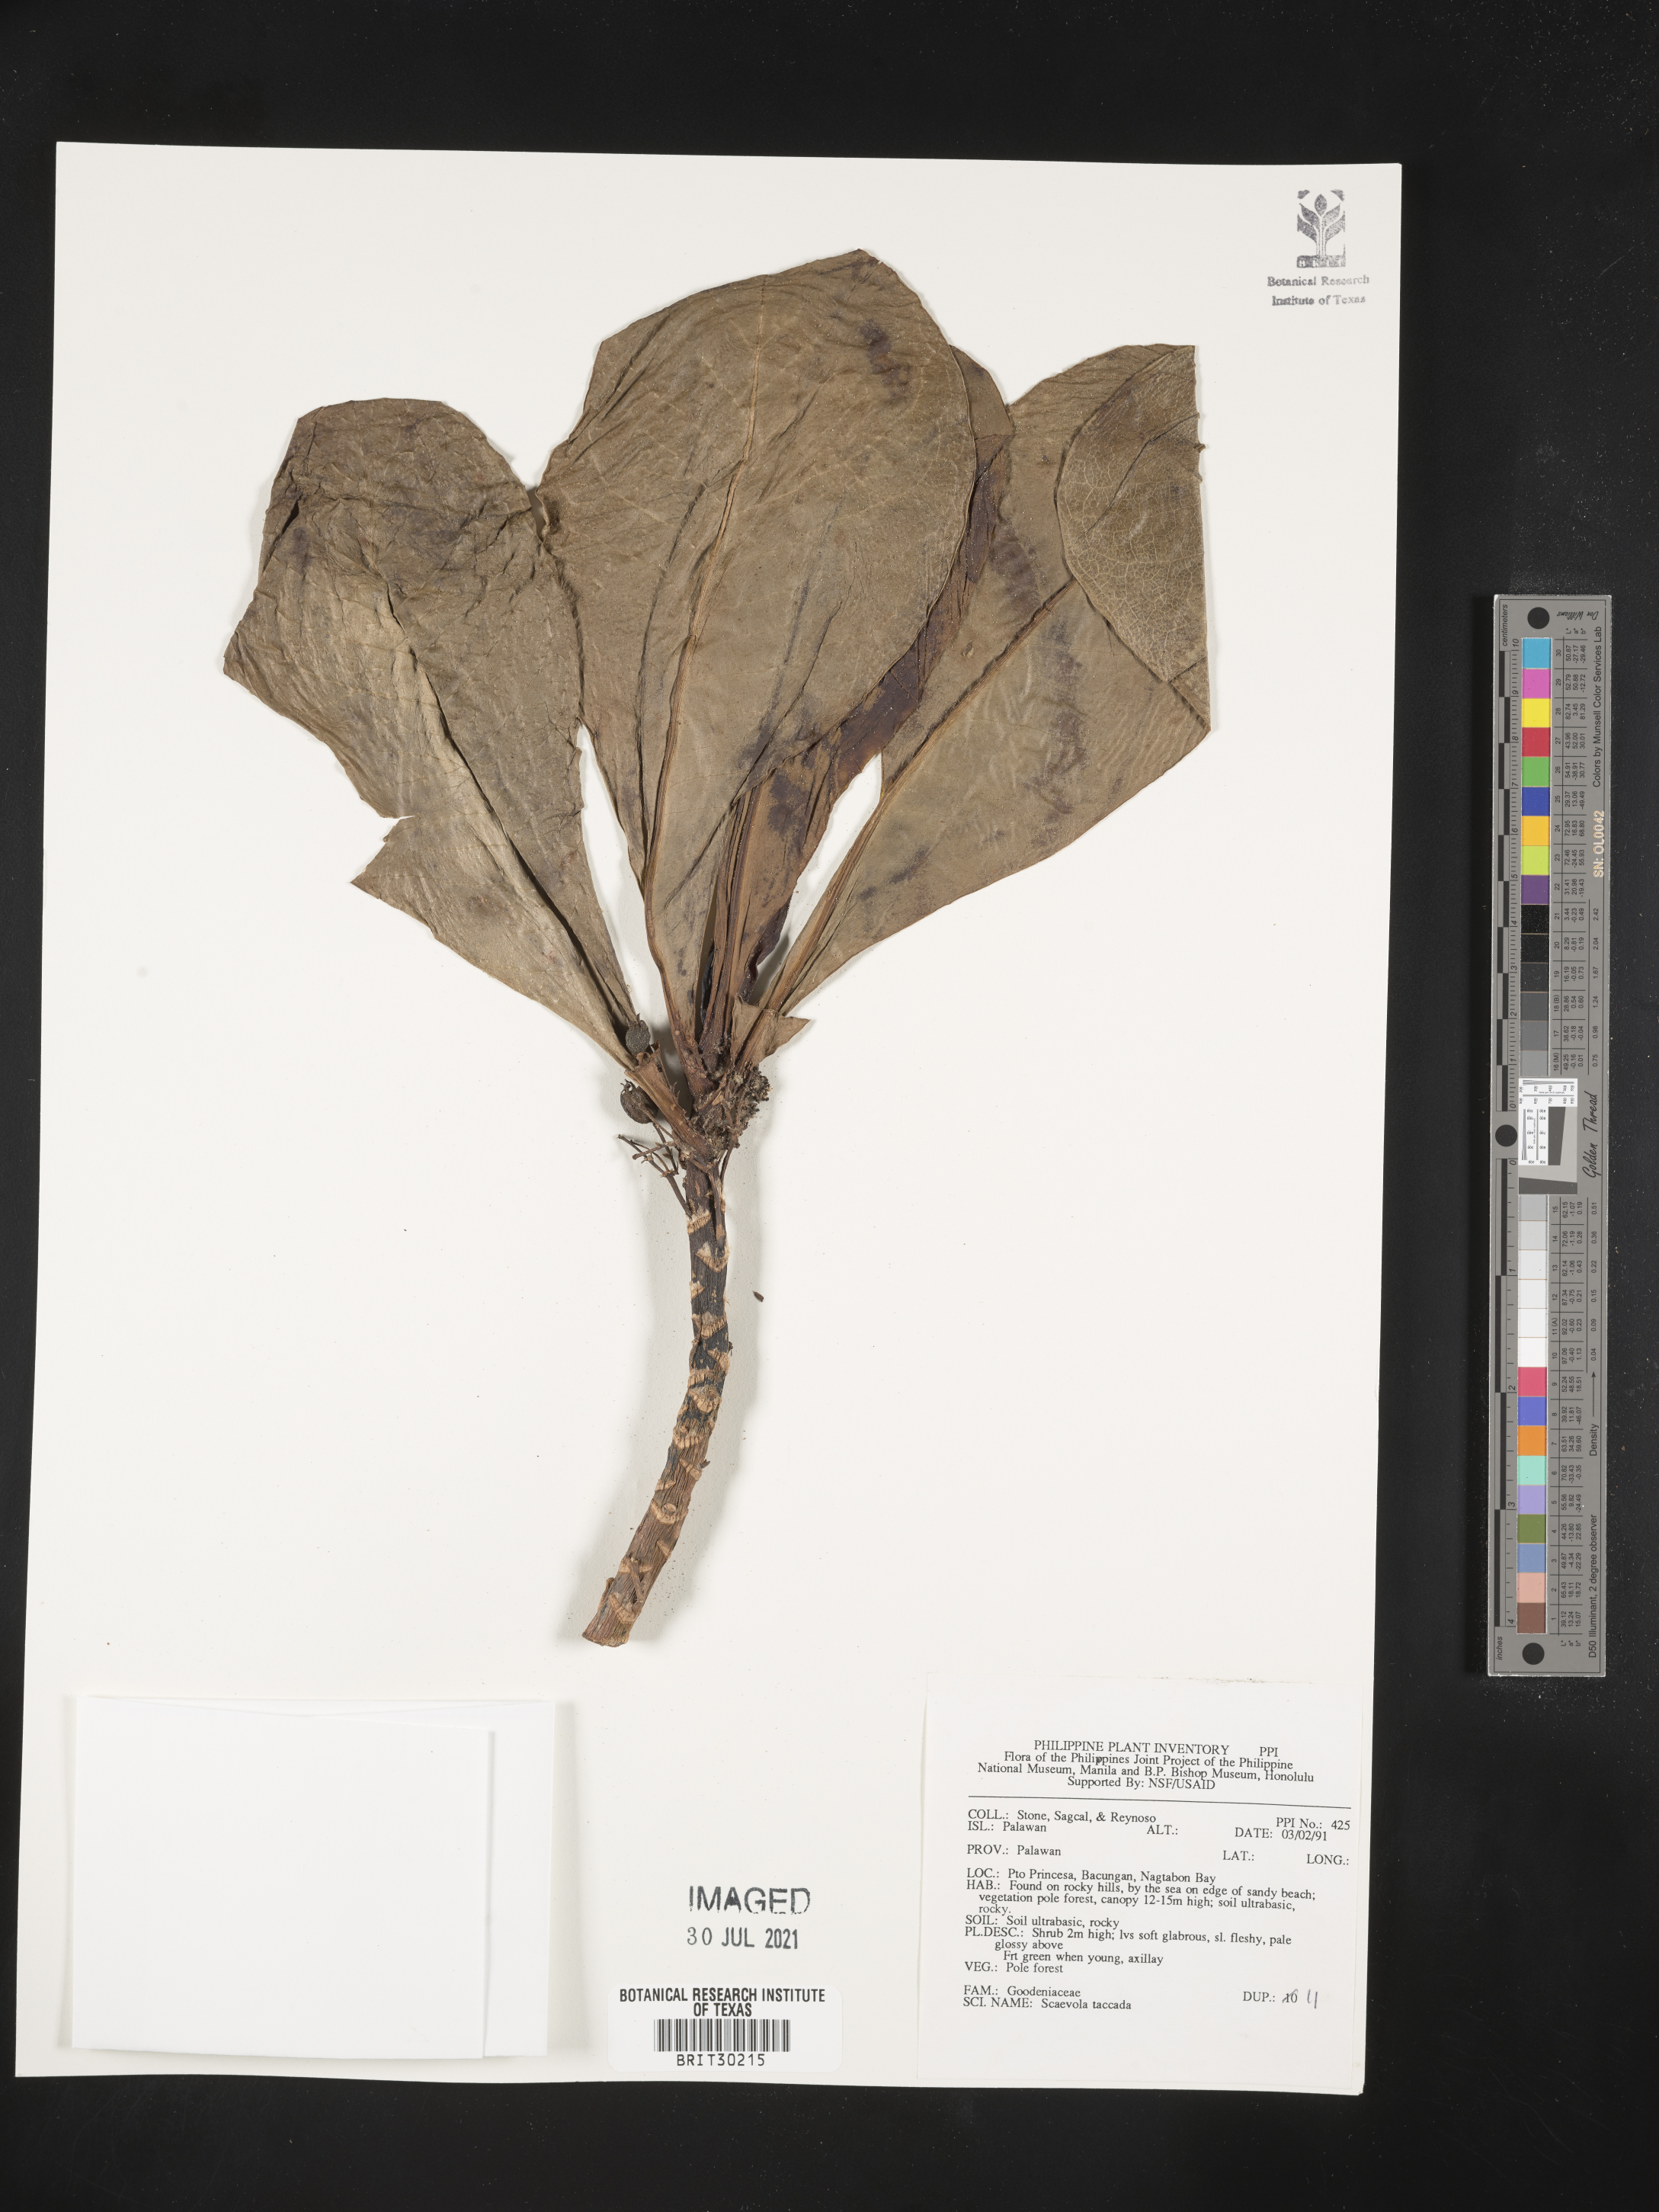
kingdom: Plantae
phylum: Tracheophyta
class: Magnoliopsida
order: Asterales
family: Goodeniaceae
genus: Scaevola
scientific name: Scaevola taccada
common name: Sea lettucetree
